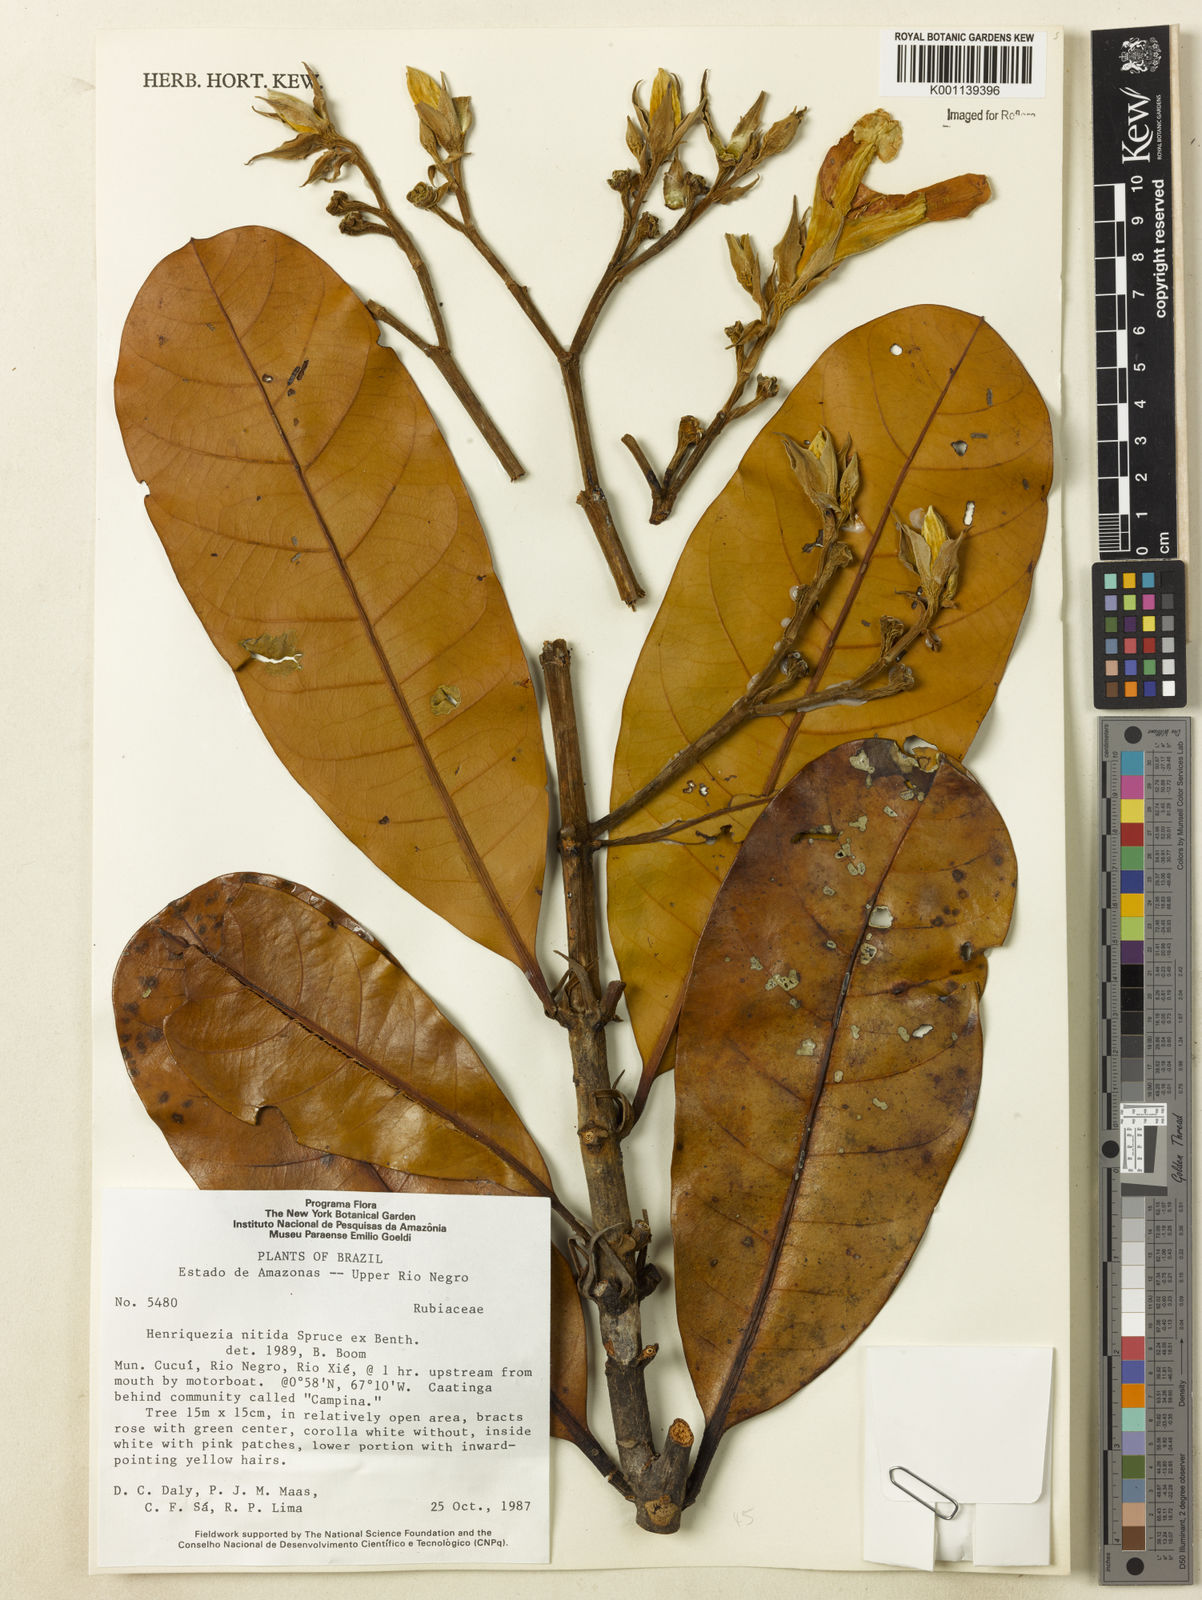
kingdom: Plantae
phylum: Tracheophyta
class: Magnoliopsida
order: Gentianales
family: Rubiaceae
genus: Henriquezia
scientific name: Henriquezia nitida
